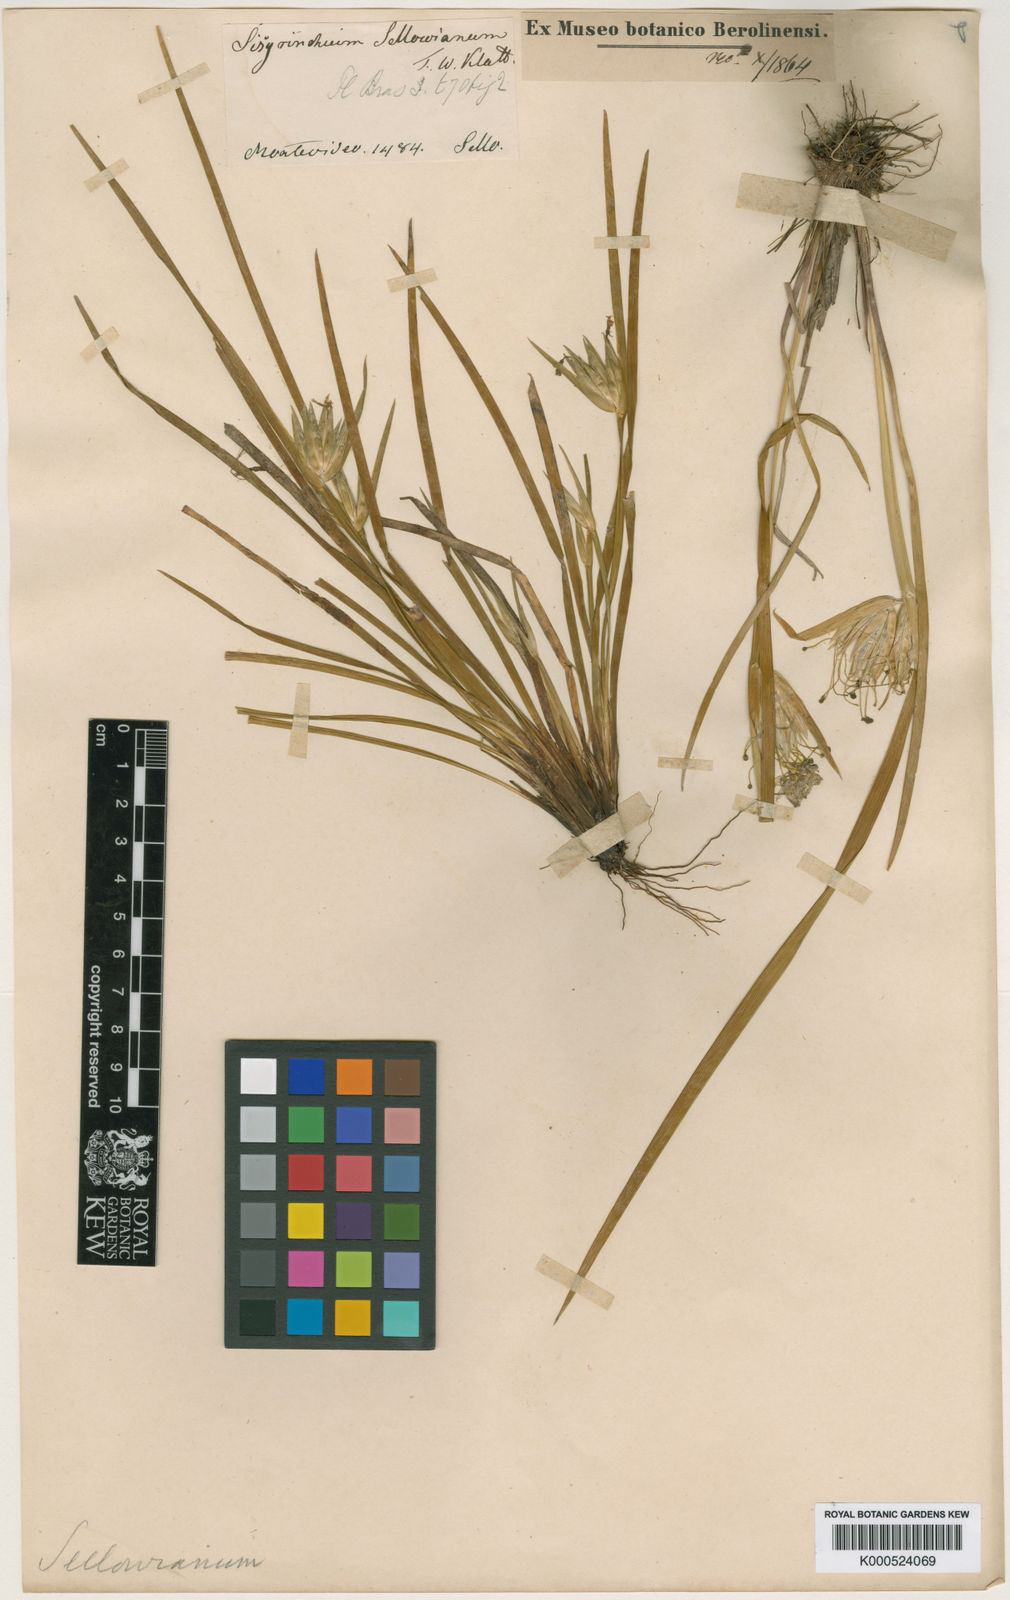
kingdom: Plantae
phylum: Tracheophyta
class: Liliopsida
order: Asparagales
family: Iridaceae
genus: Sisyrinchium
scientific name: Sisyrinchium sellowianum
